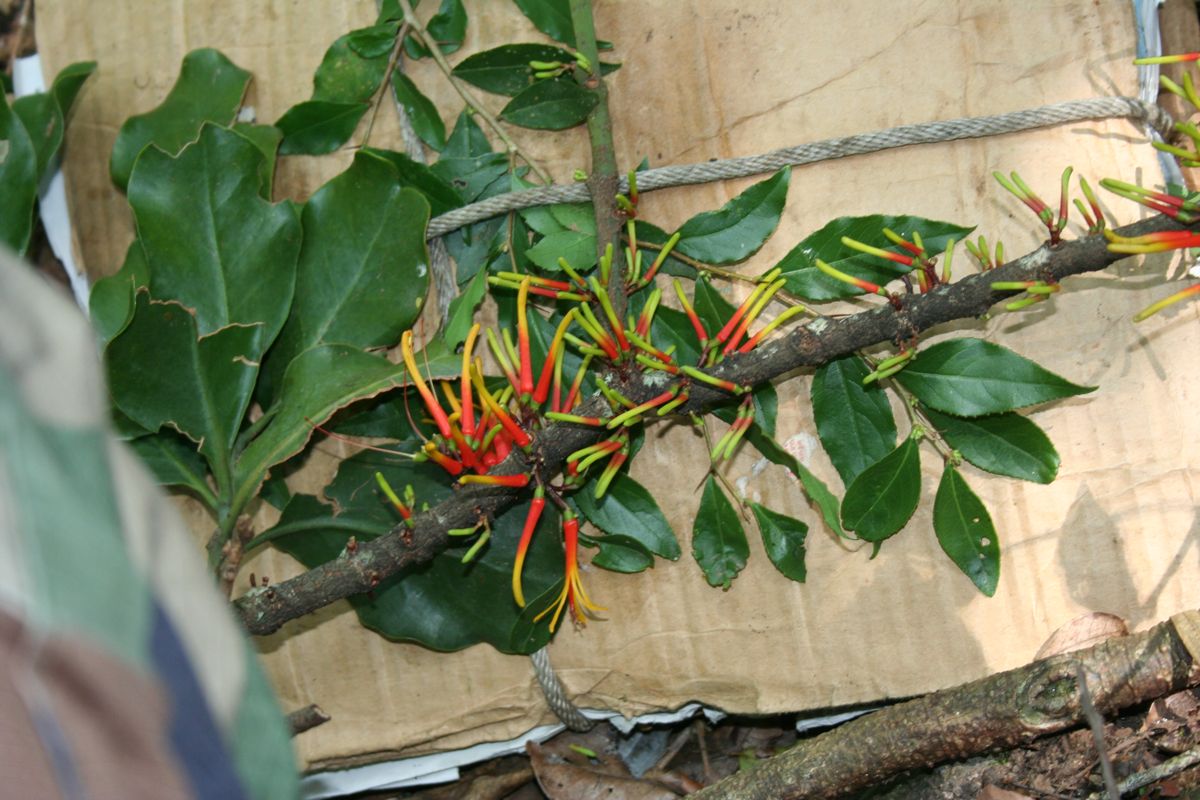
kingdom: Plantae
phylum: Tracheophyta
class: Magnoliopsida
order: Santalales
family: Loranthaceae
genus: Psittacanthus
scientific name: Psittacanthus ramiflorus
